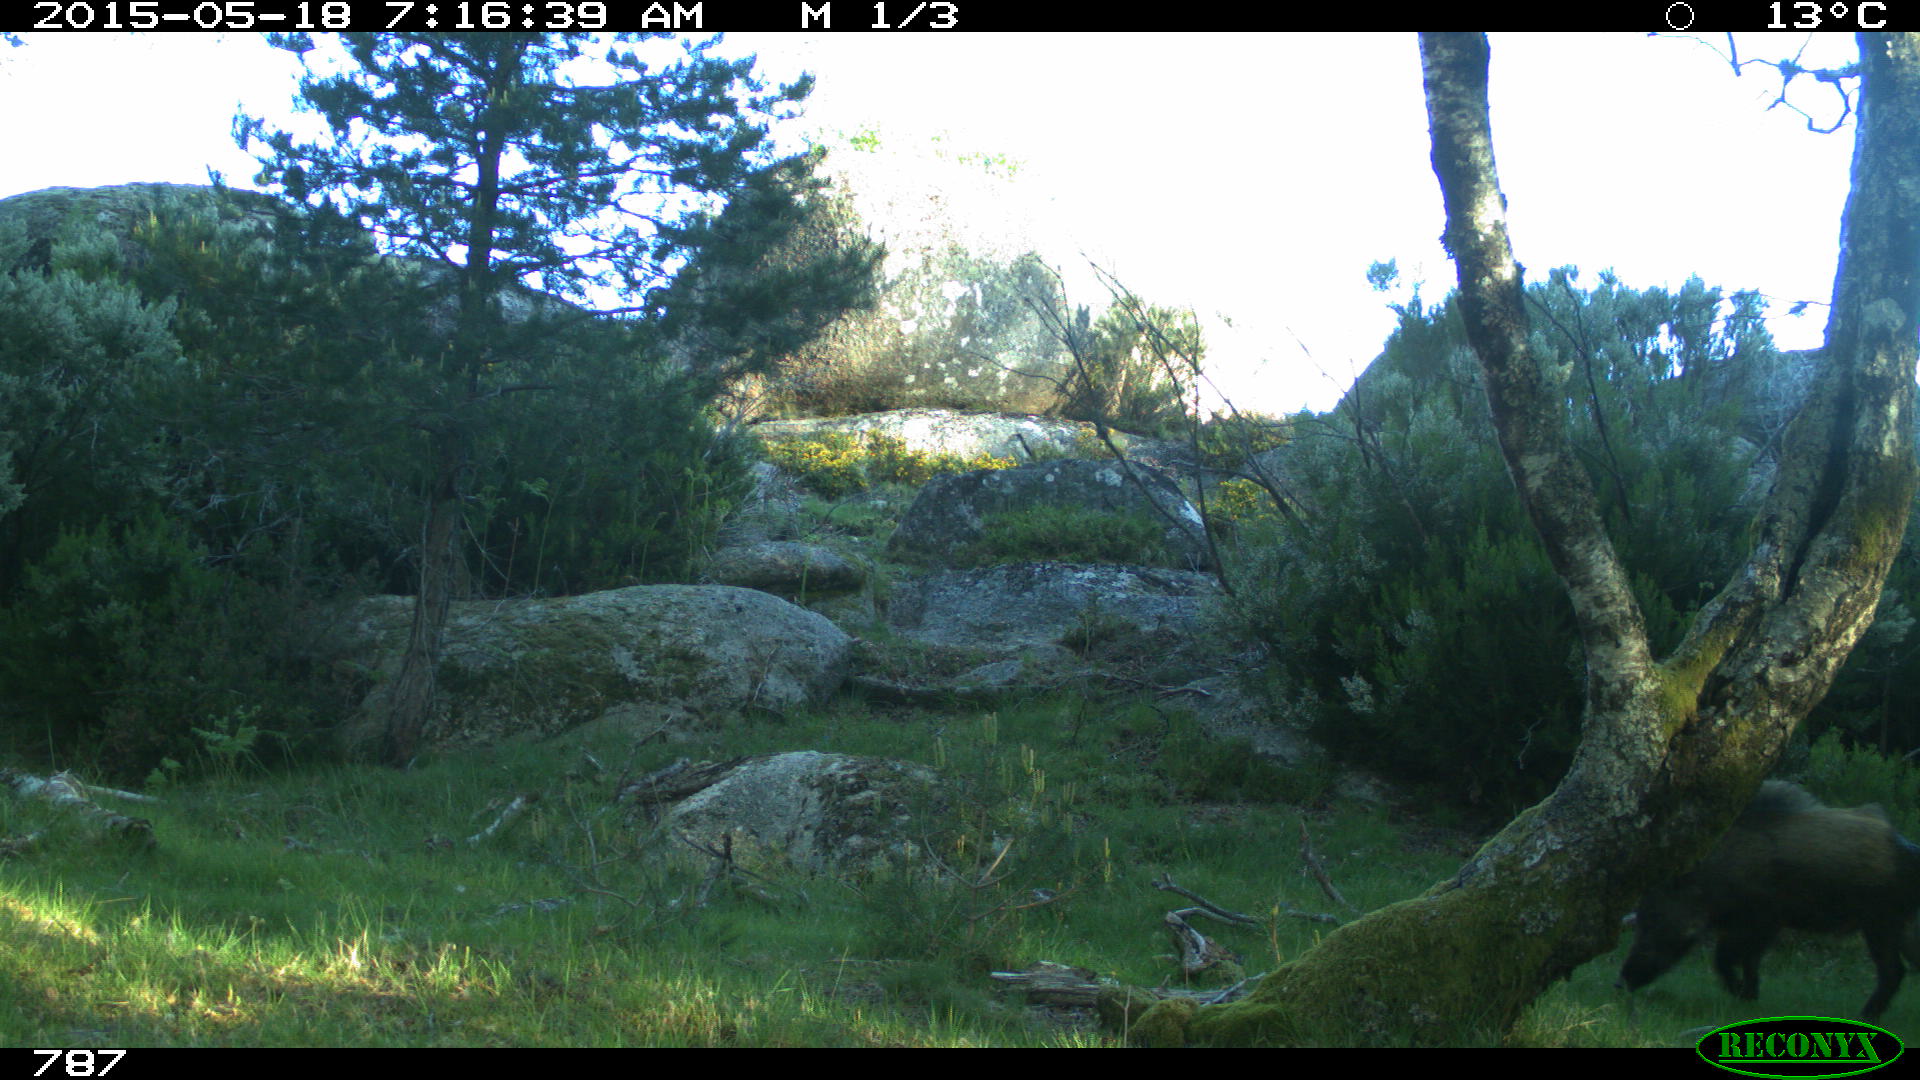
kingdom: Animalia
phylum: Chordata
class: Mammalia
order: Artiodactyla
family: Suidae
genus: Sus
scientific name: Sus scrofa
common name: Wild boar
